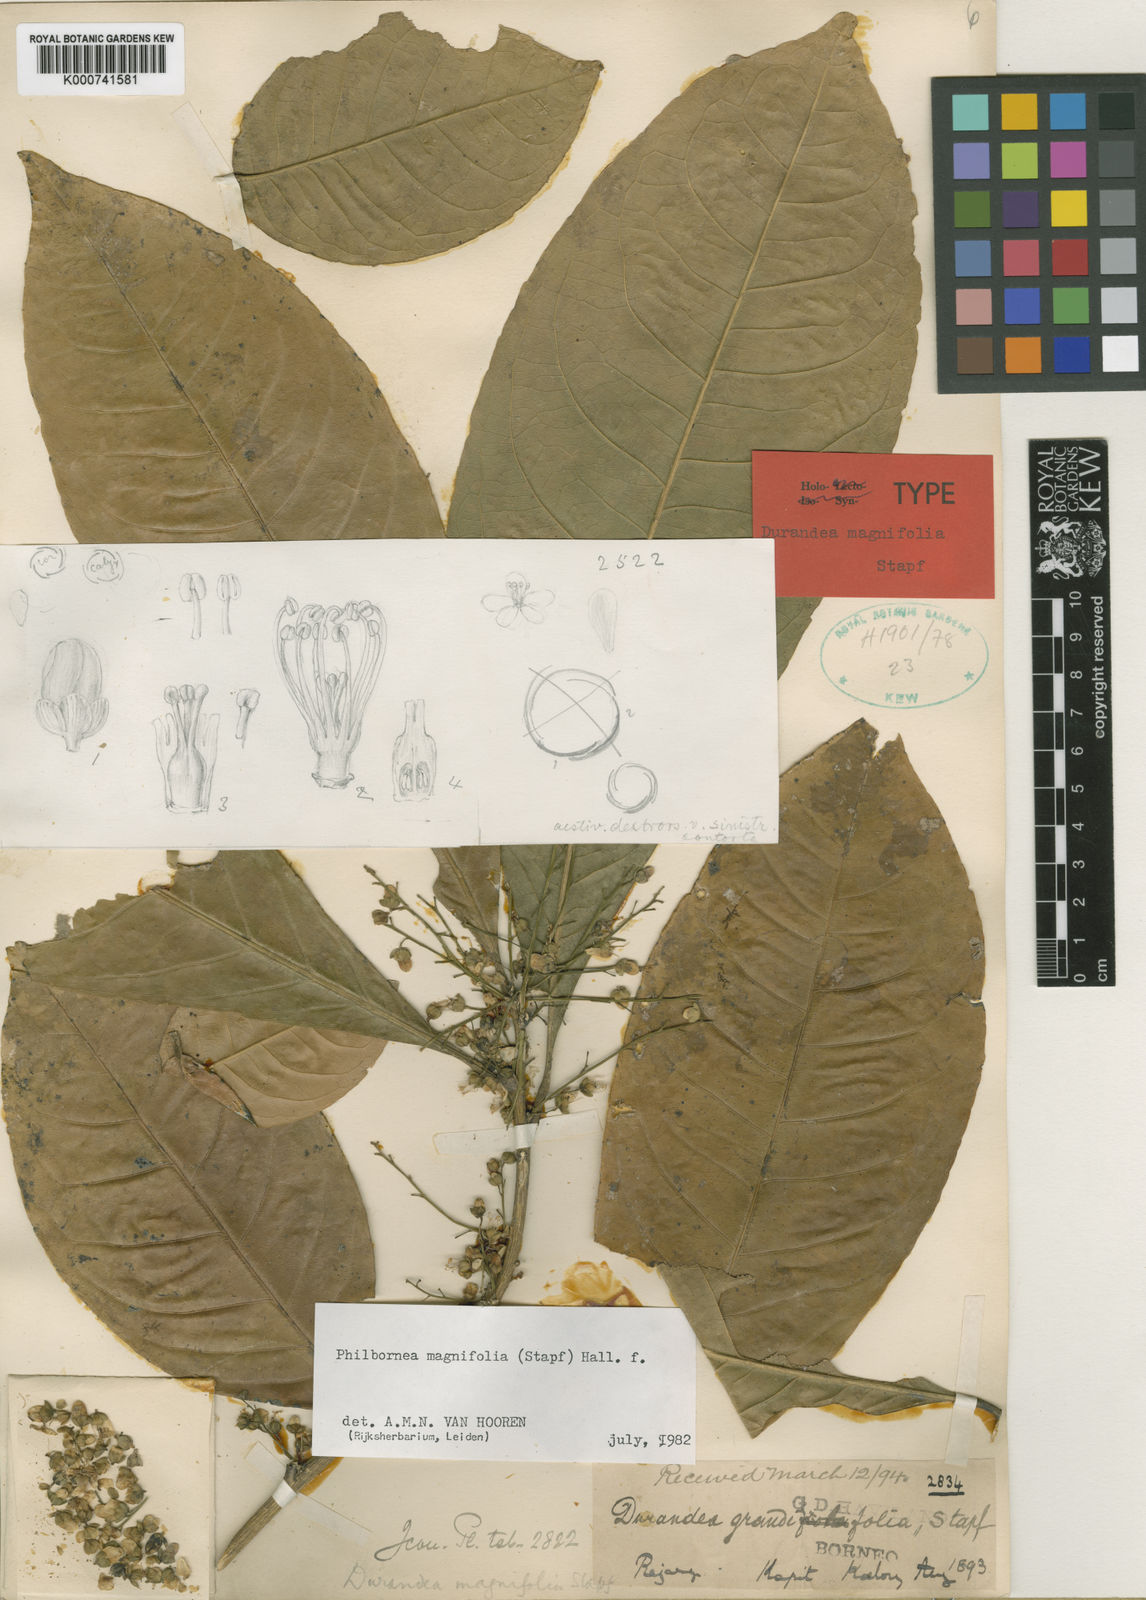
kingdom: Plantae
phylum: Tracheophyta
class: Magnoliopsida
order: Malpighiales
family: Linaceae
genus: Philbornea
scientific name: Philbornea magnifolia
